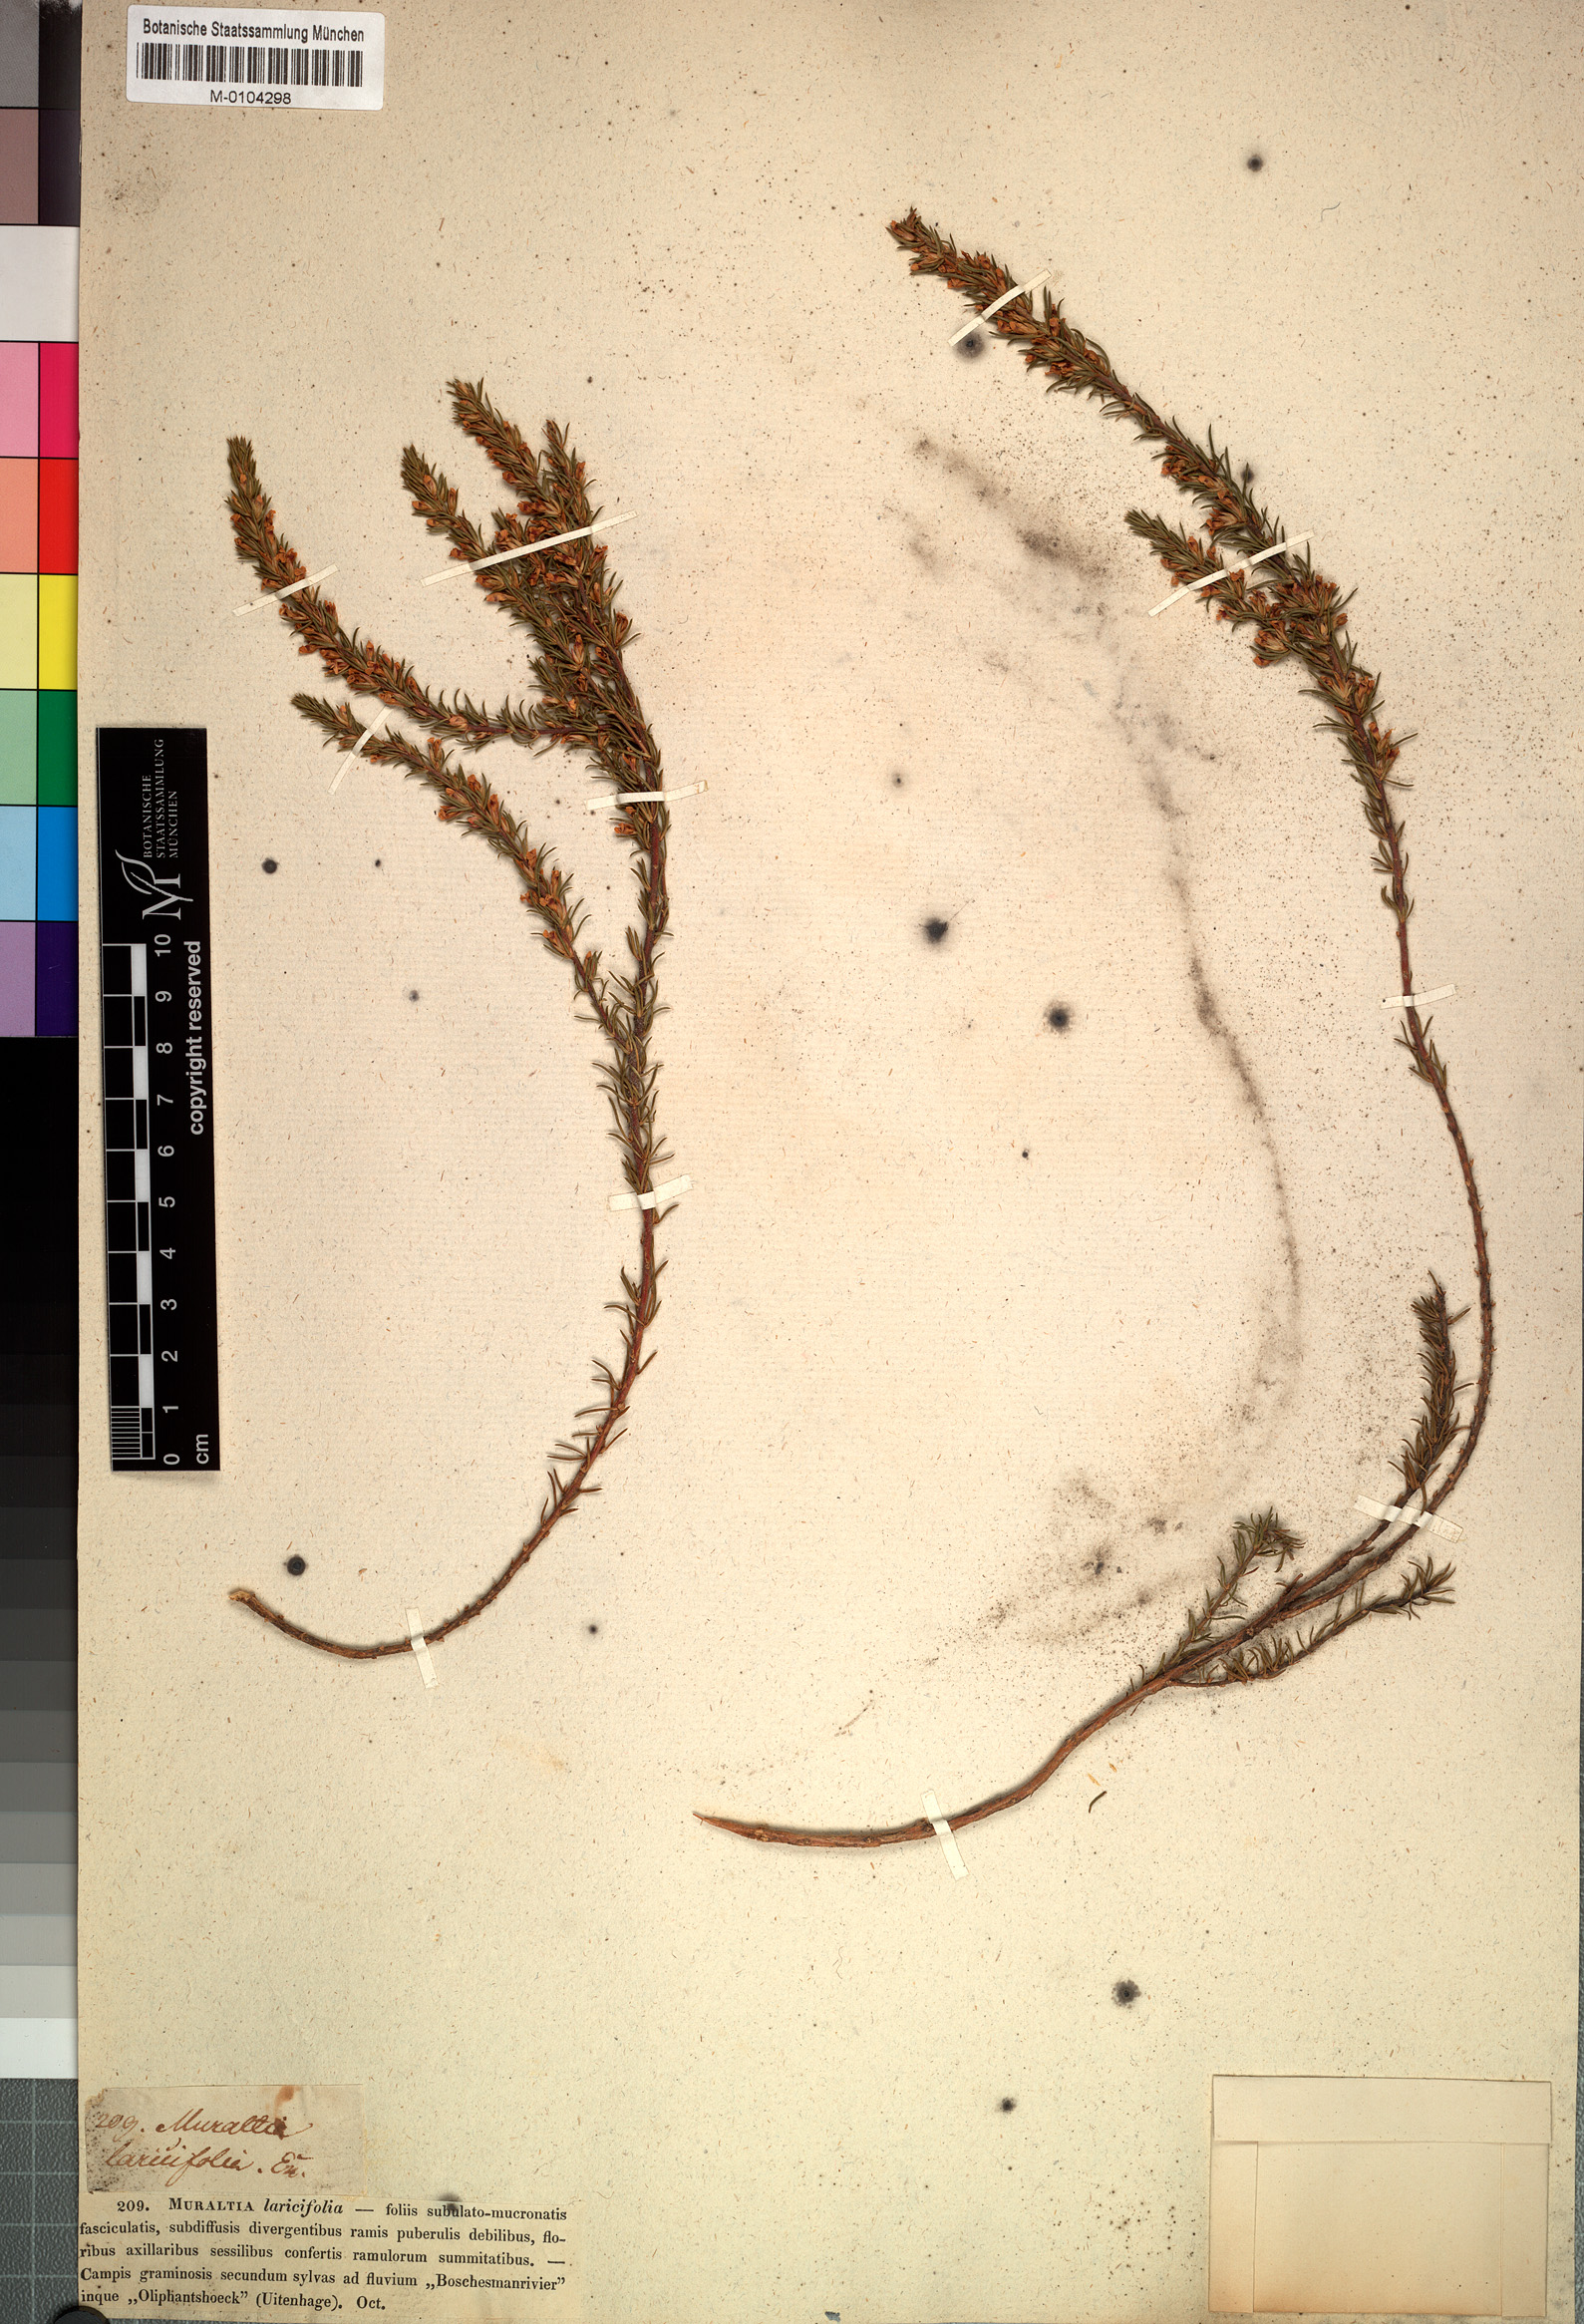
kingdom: Plantae
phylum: Tracheophyta
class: Magnoliopsida
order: Fabales
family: Polygalaceae
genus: Muraltia
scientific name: Muraltia macroceras
